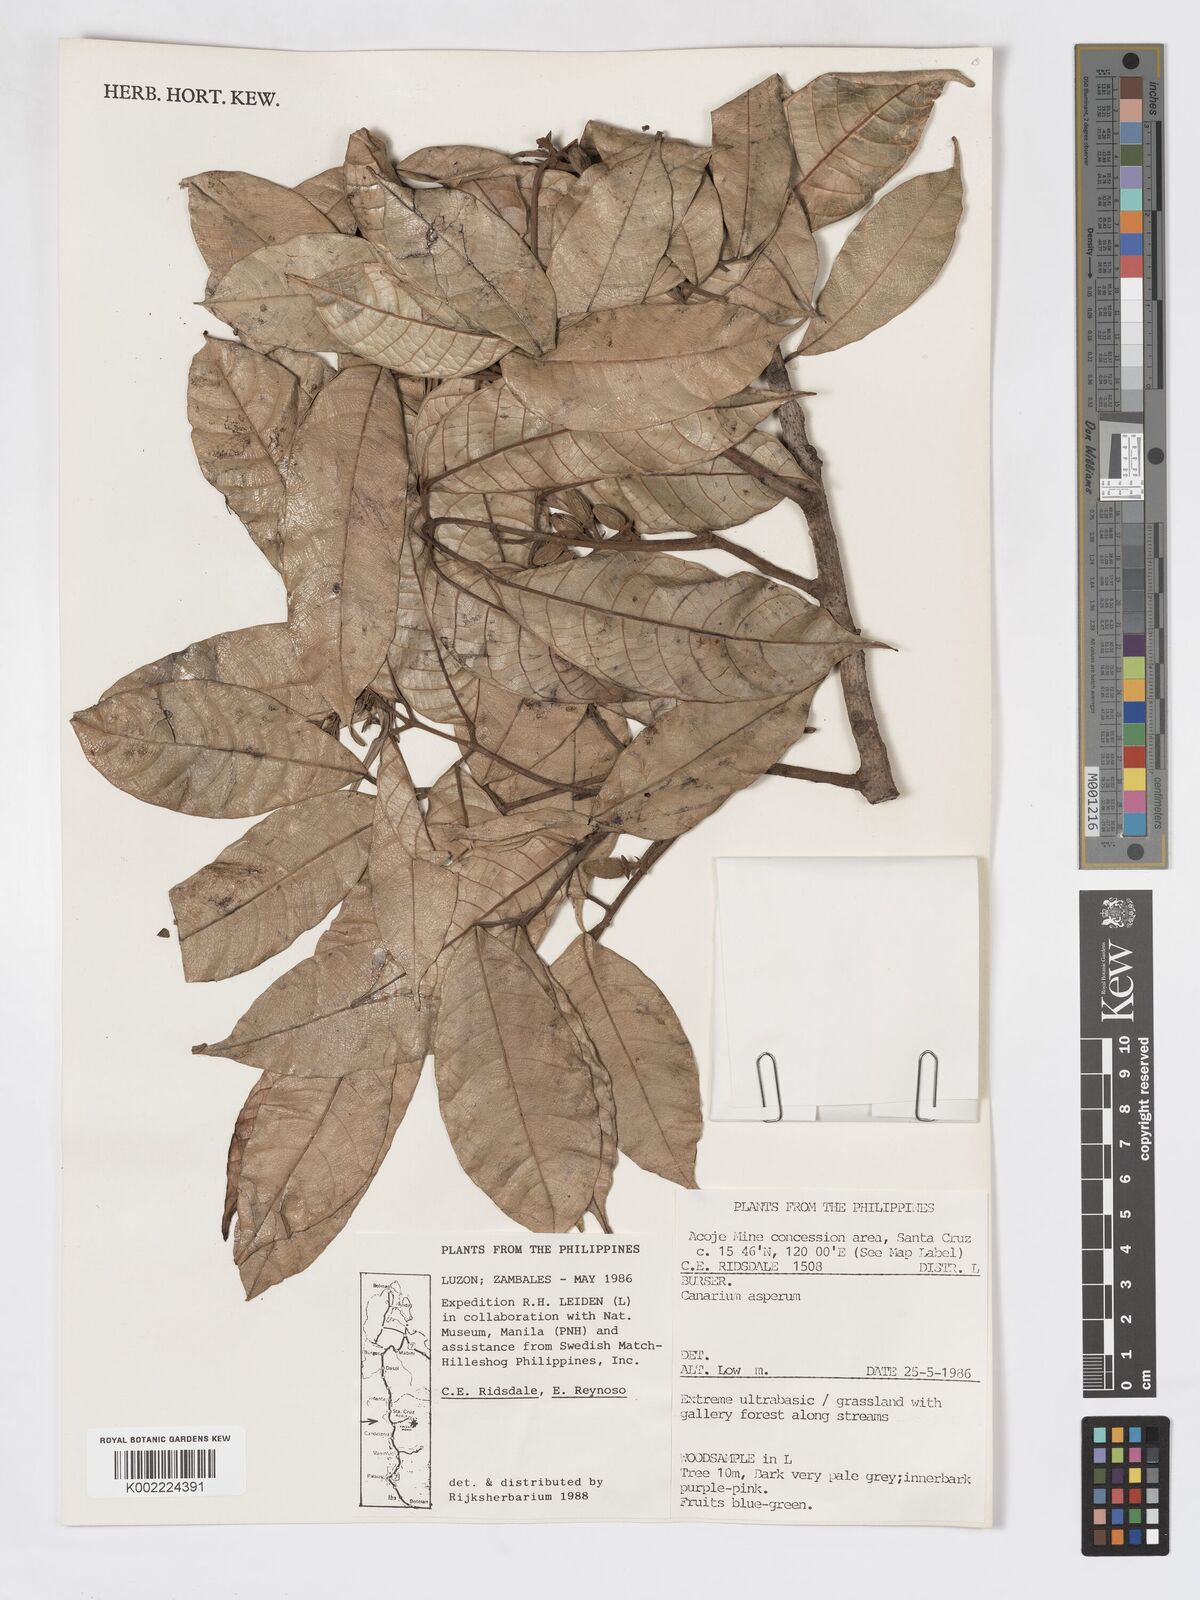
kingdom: Plantae
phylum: Tracheophyta
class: Magnoliopsida
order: Sapindales
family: Burseraceae
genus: Canarium
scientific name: Canarium asperum
